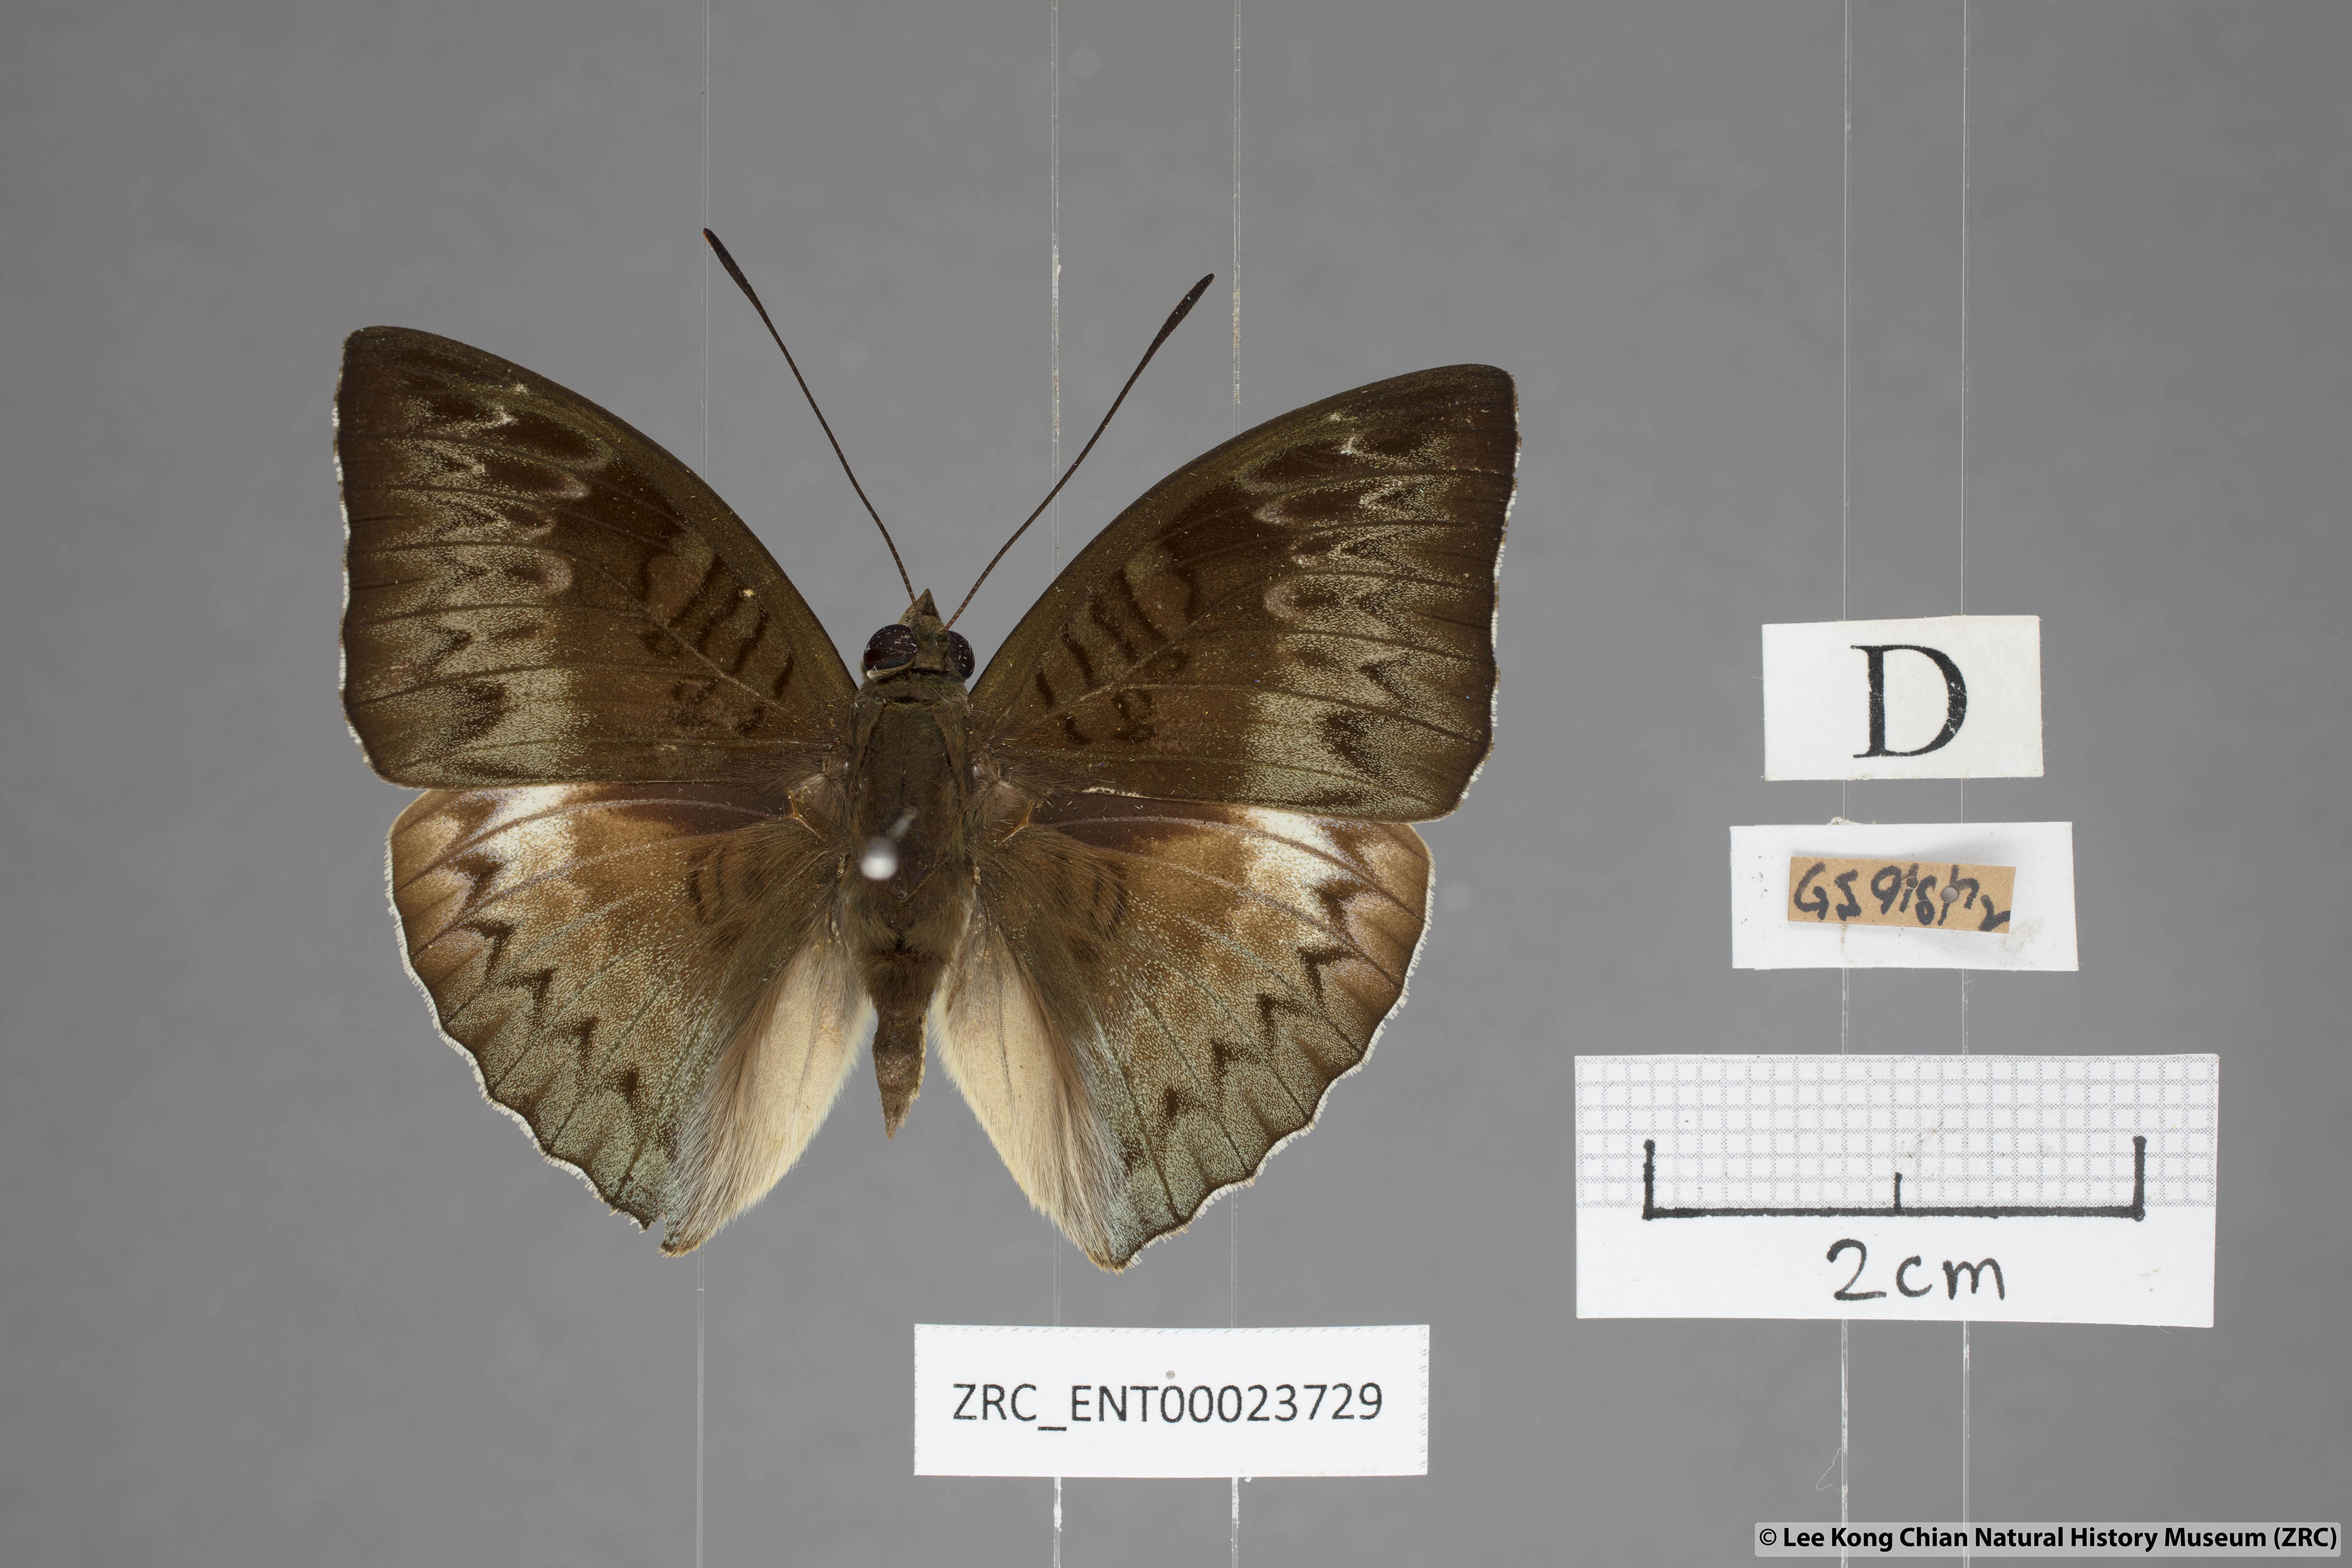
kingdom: Animalia
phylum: Arthropoda
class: Insecta
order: Lepidoptera
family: Nymphalidae
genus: Euthalia
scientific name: Euthalia monina
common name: Powdered baron
